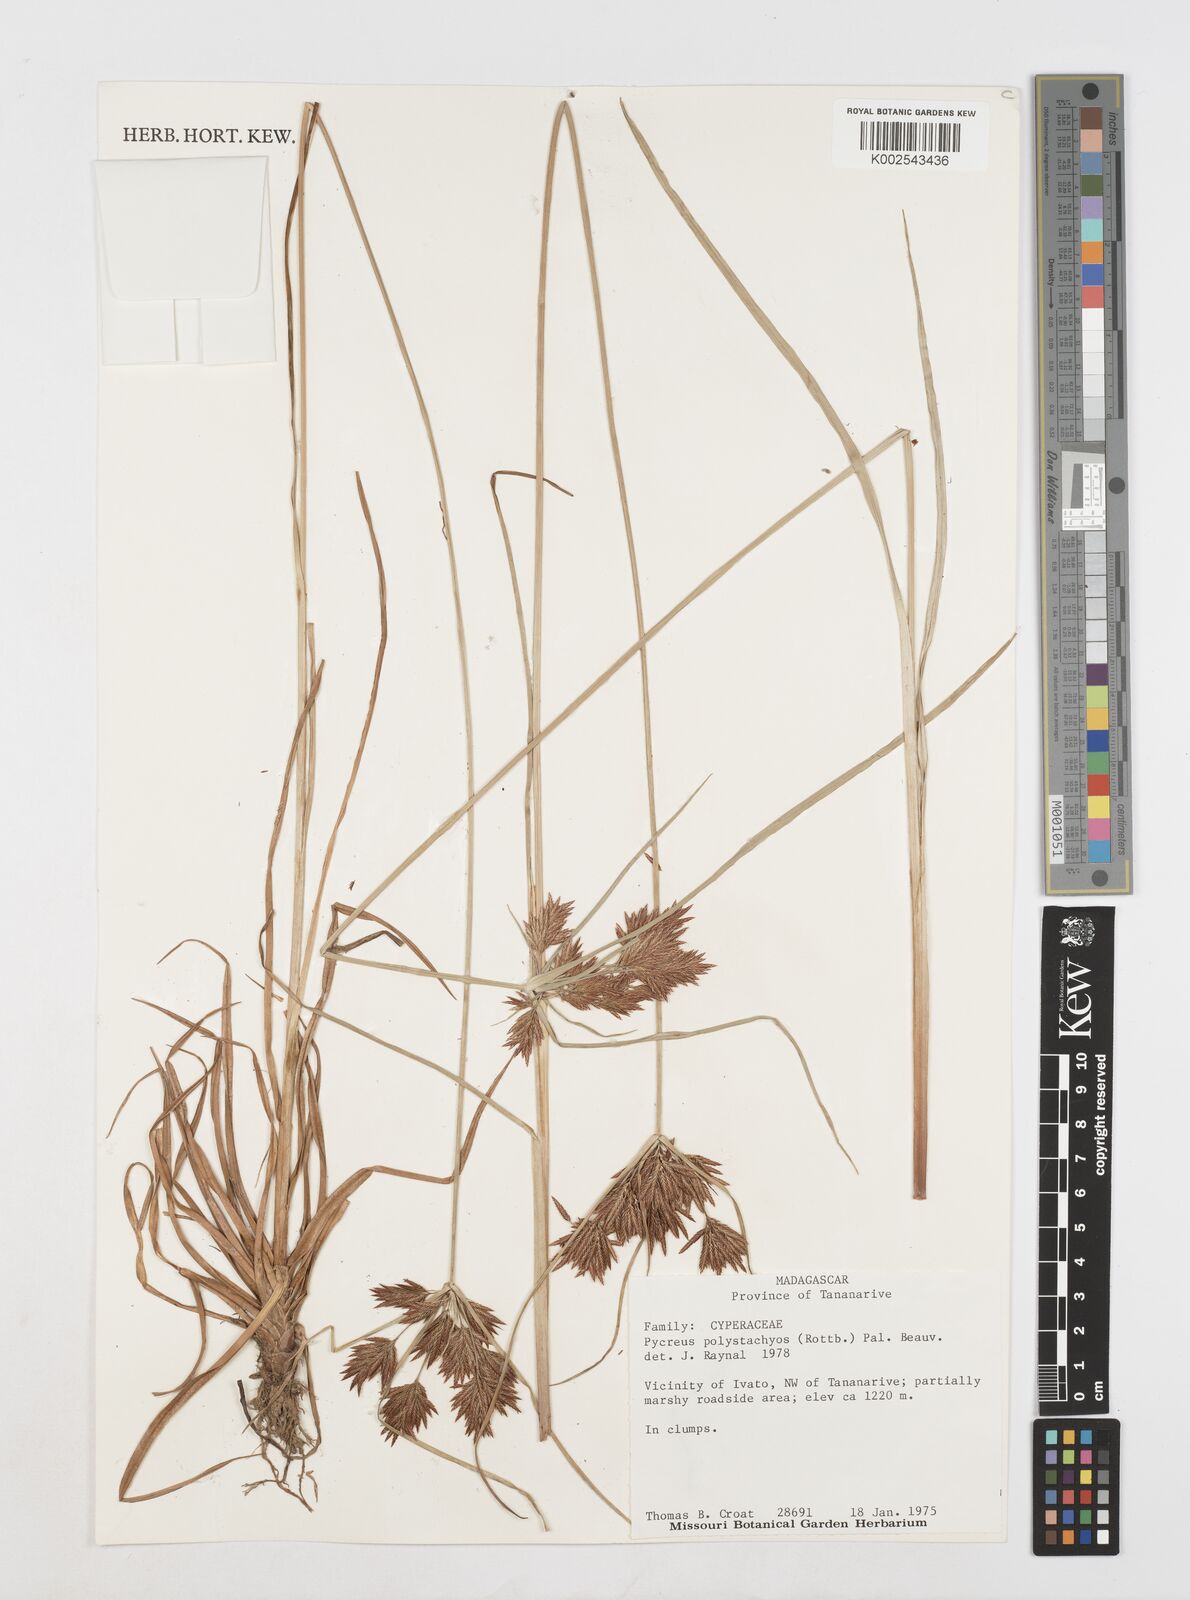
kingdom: Plantae
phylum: Tracheophyta
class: Liliopsida
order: Poales
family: Cyperaceae
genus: Cyperus
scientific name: Cyperus polystachyos
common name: Bunchy flat sedge
